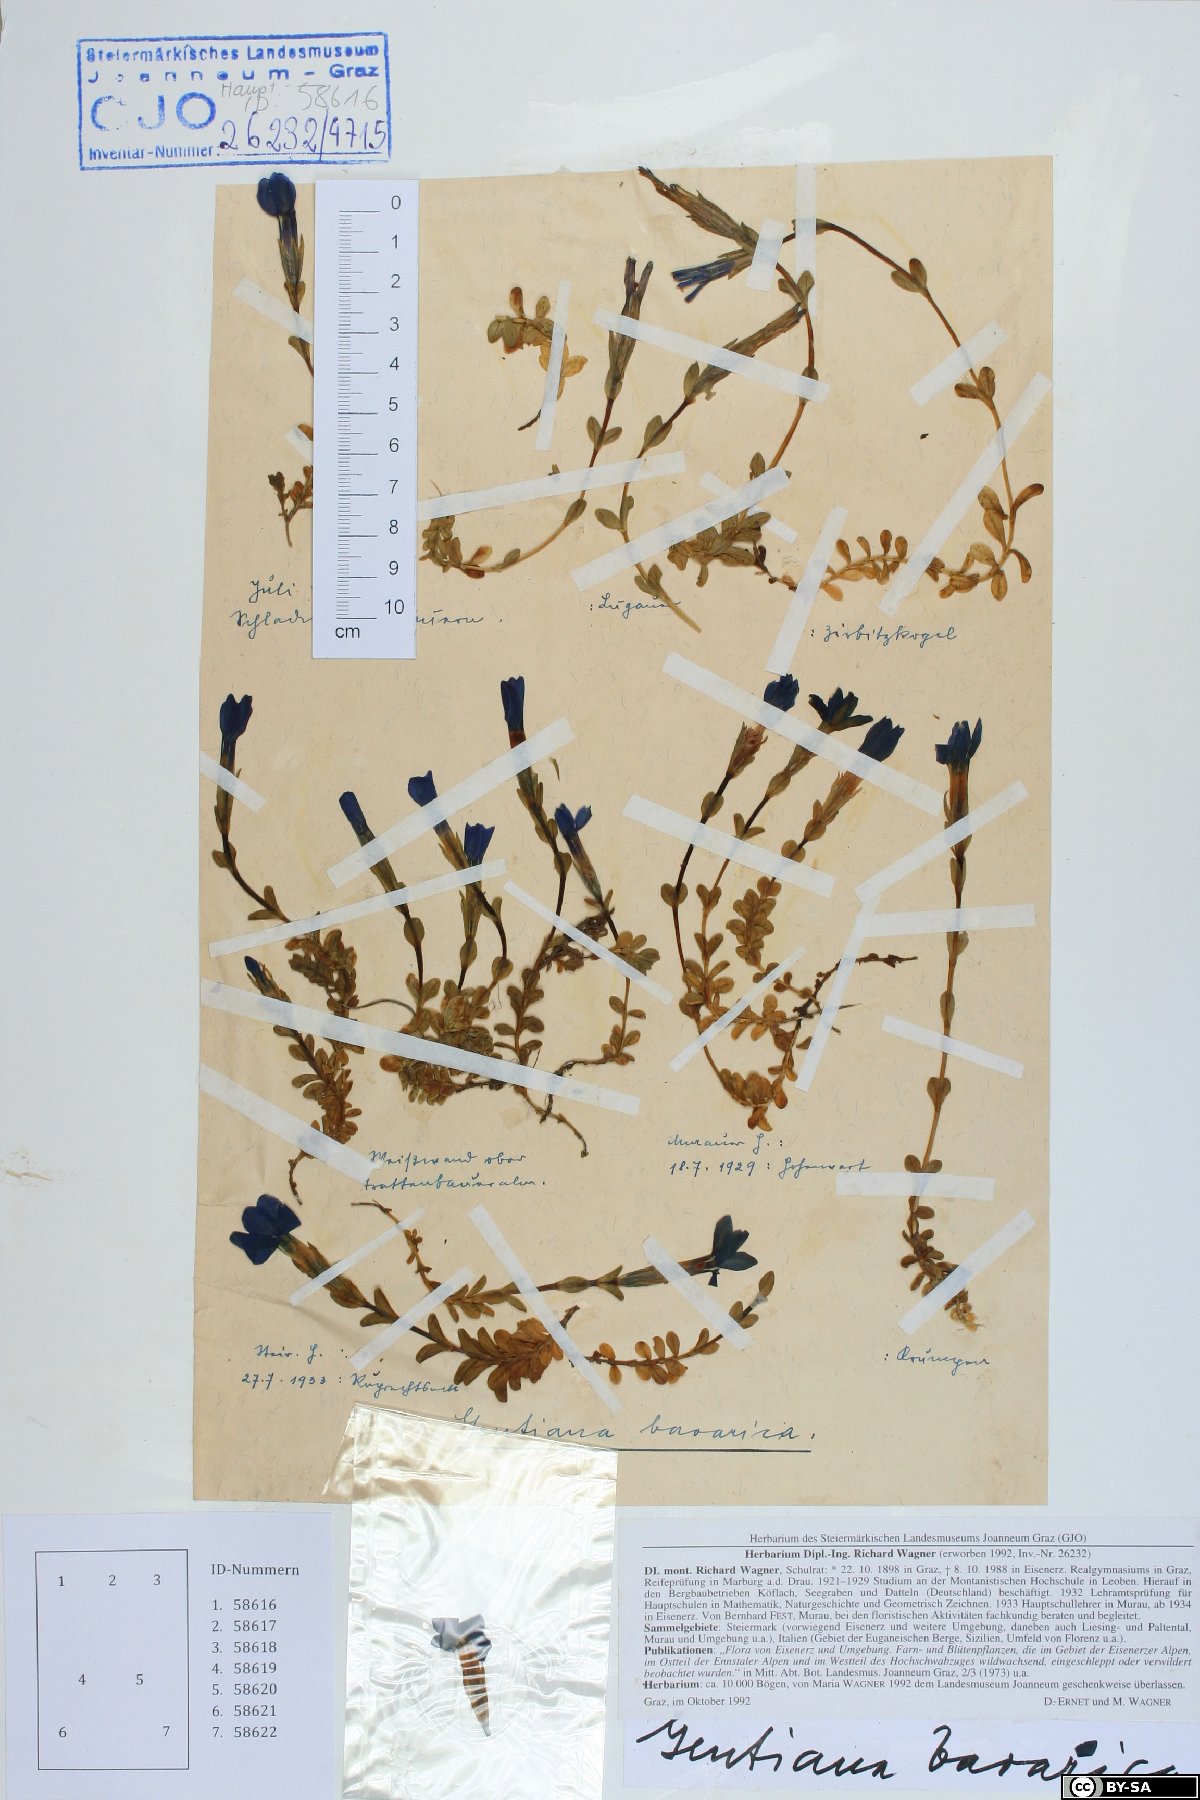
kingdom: Plantae
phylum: Tracheophyta
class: Magnoliopsida
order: Gentianales
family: Gentianaceae
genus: Gentiana
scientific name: Gentiana bavarica
